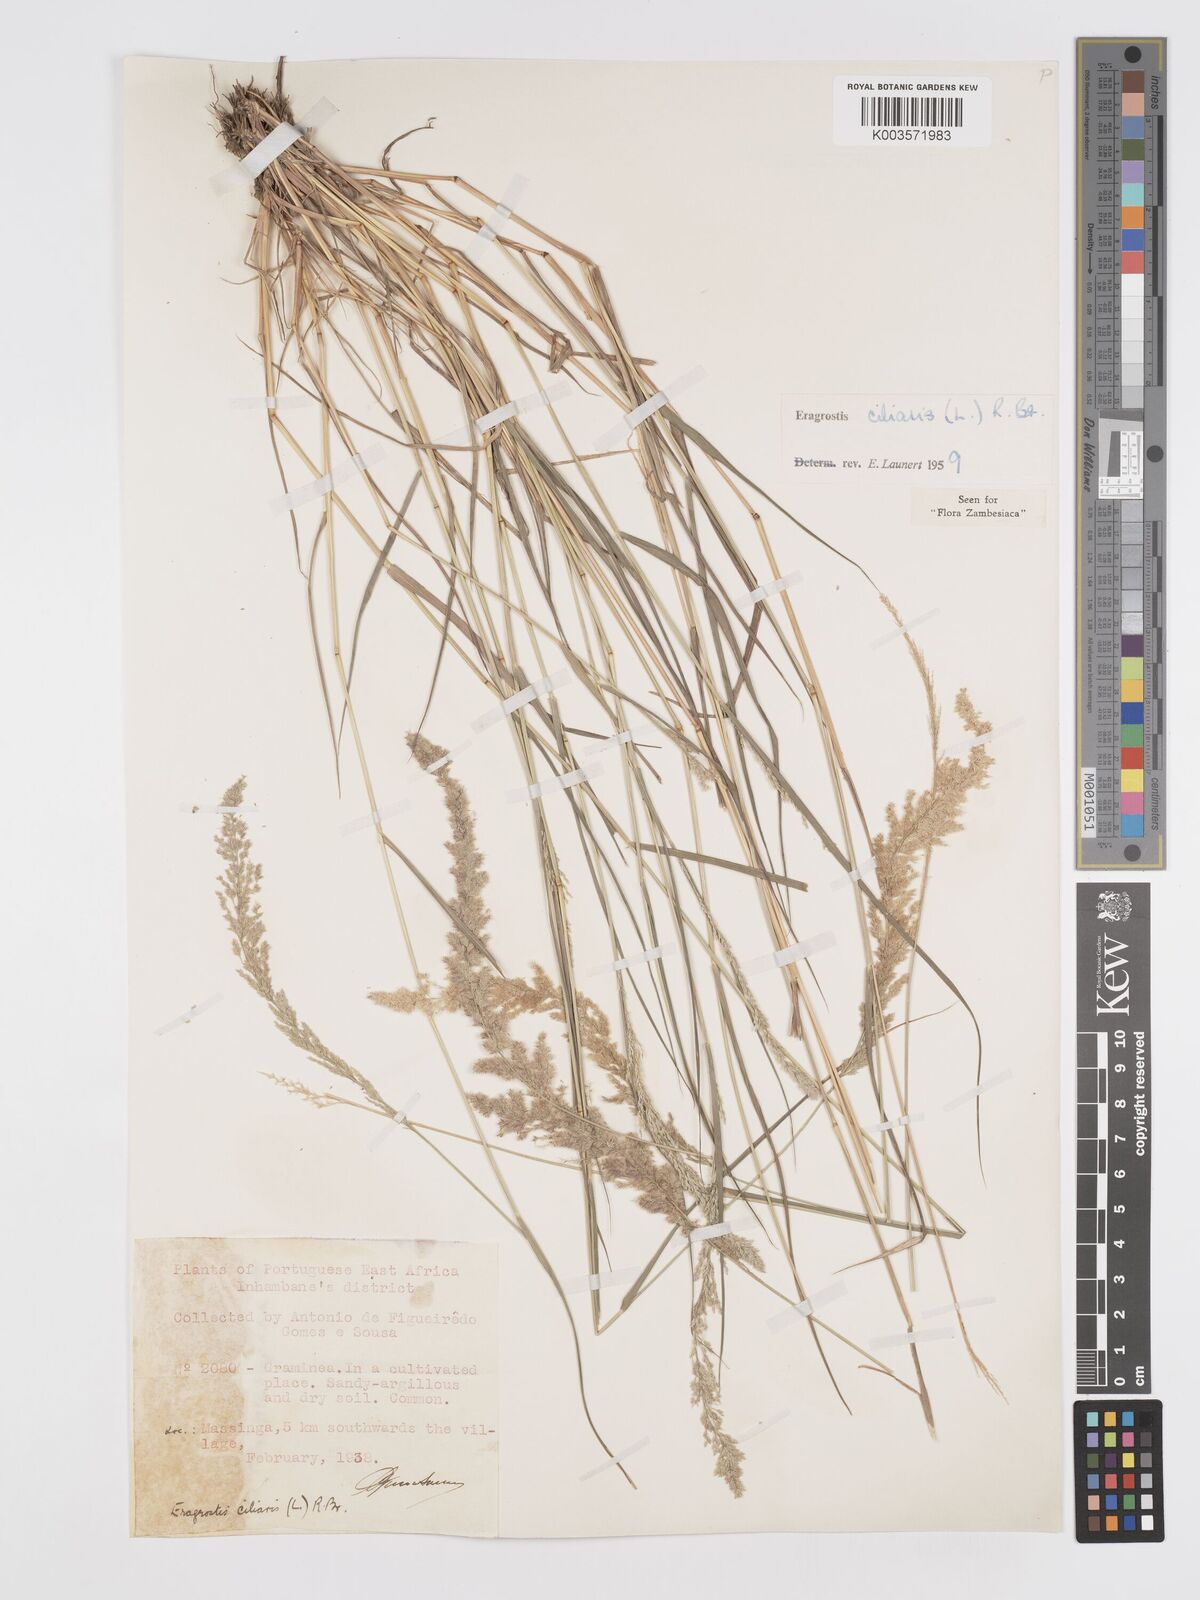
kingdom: Plantae
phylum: Tracheophyta
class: Liliopsida
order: Poales
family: Poaceae
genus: Eragrostis
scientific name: Eragrostis ciliaris
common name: Gophertail lovegrass
